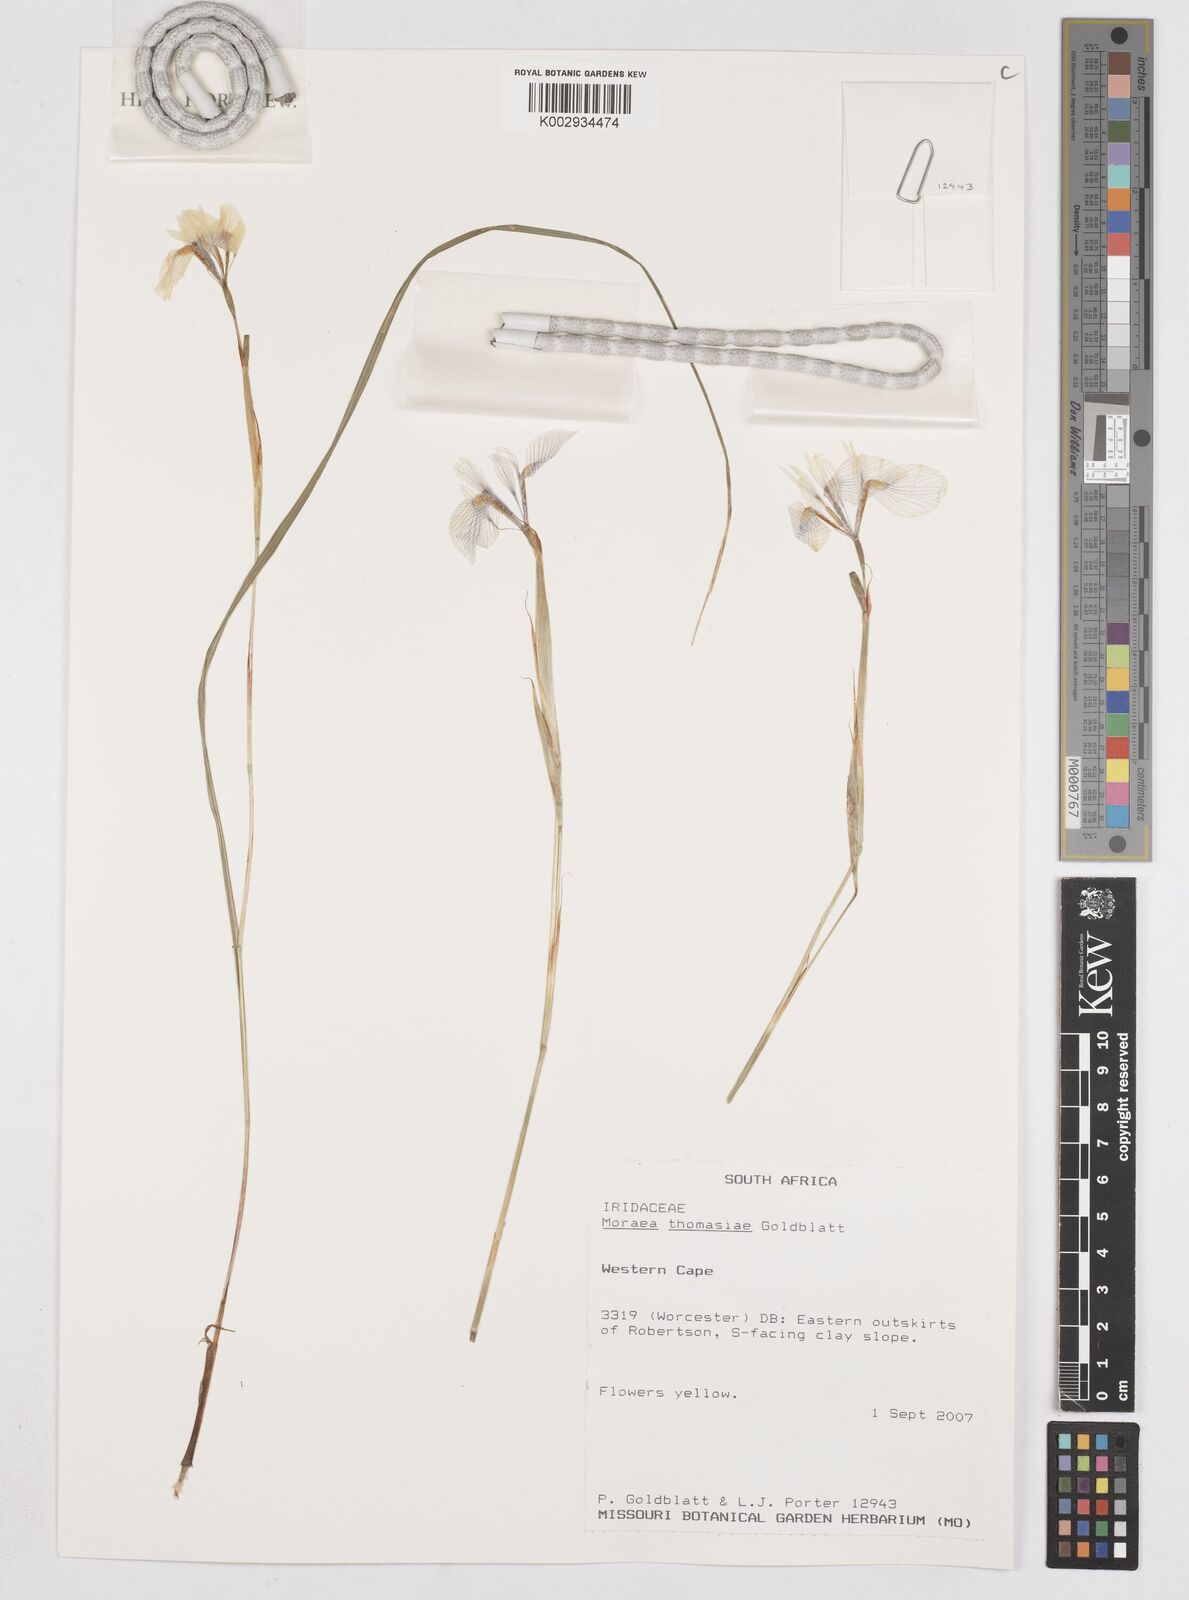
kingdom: Plantae
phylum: Tracheophyta
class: Liliopsida
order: Asparagales
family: Iridaceae
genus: Moraea
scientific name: Moraea thomasiae
